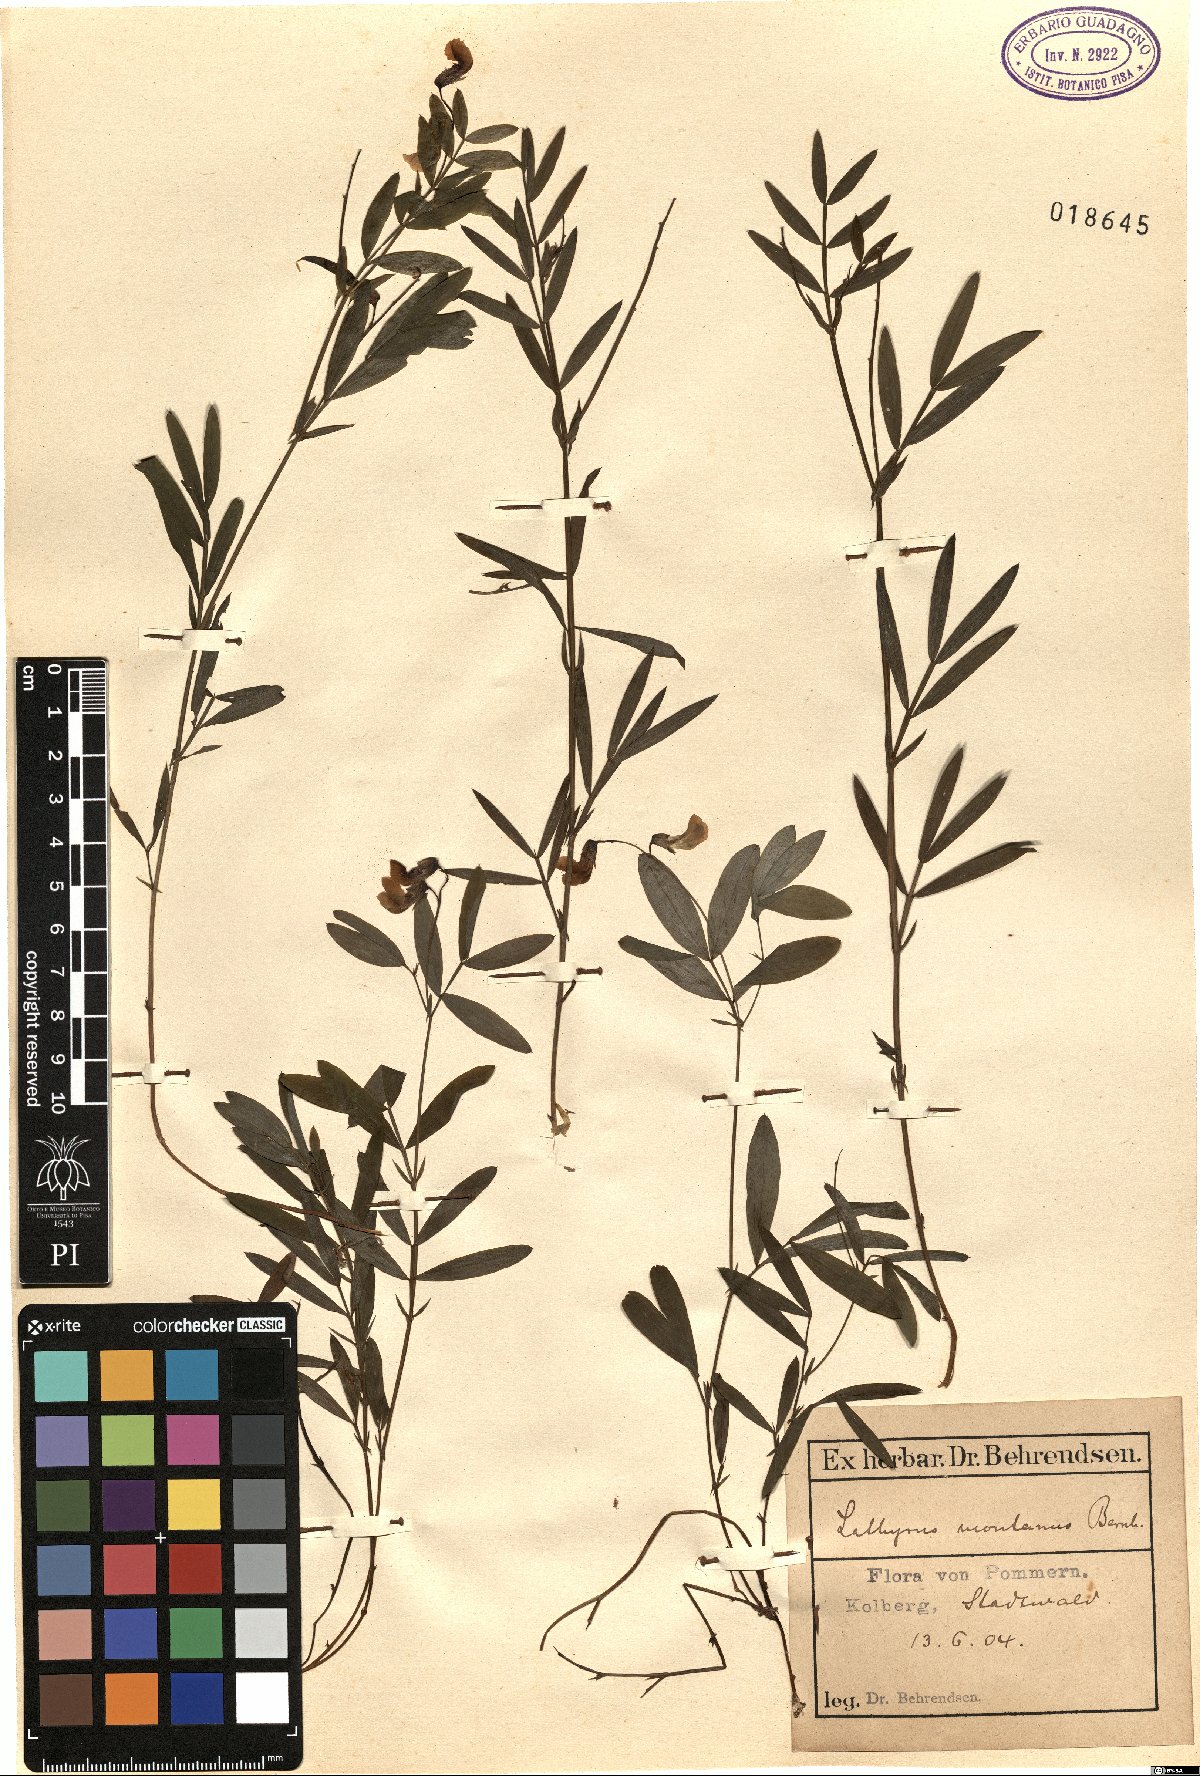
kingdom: Plantae
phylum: Tracheophyta
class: Magnoliopsida
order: Fabales
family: Fabaceae
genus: Lathyrus
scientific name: Lathyrus linifolius
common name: Bitter-vetch
